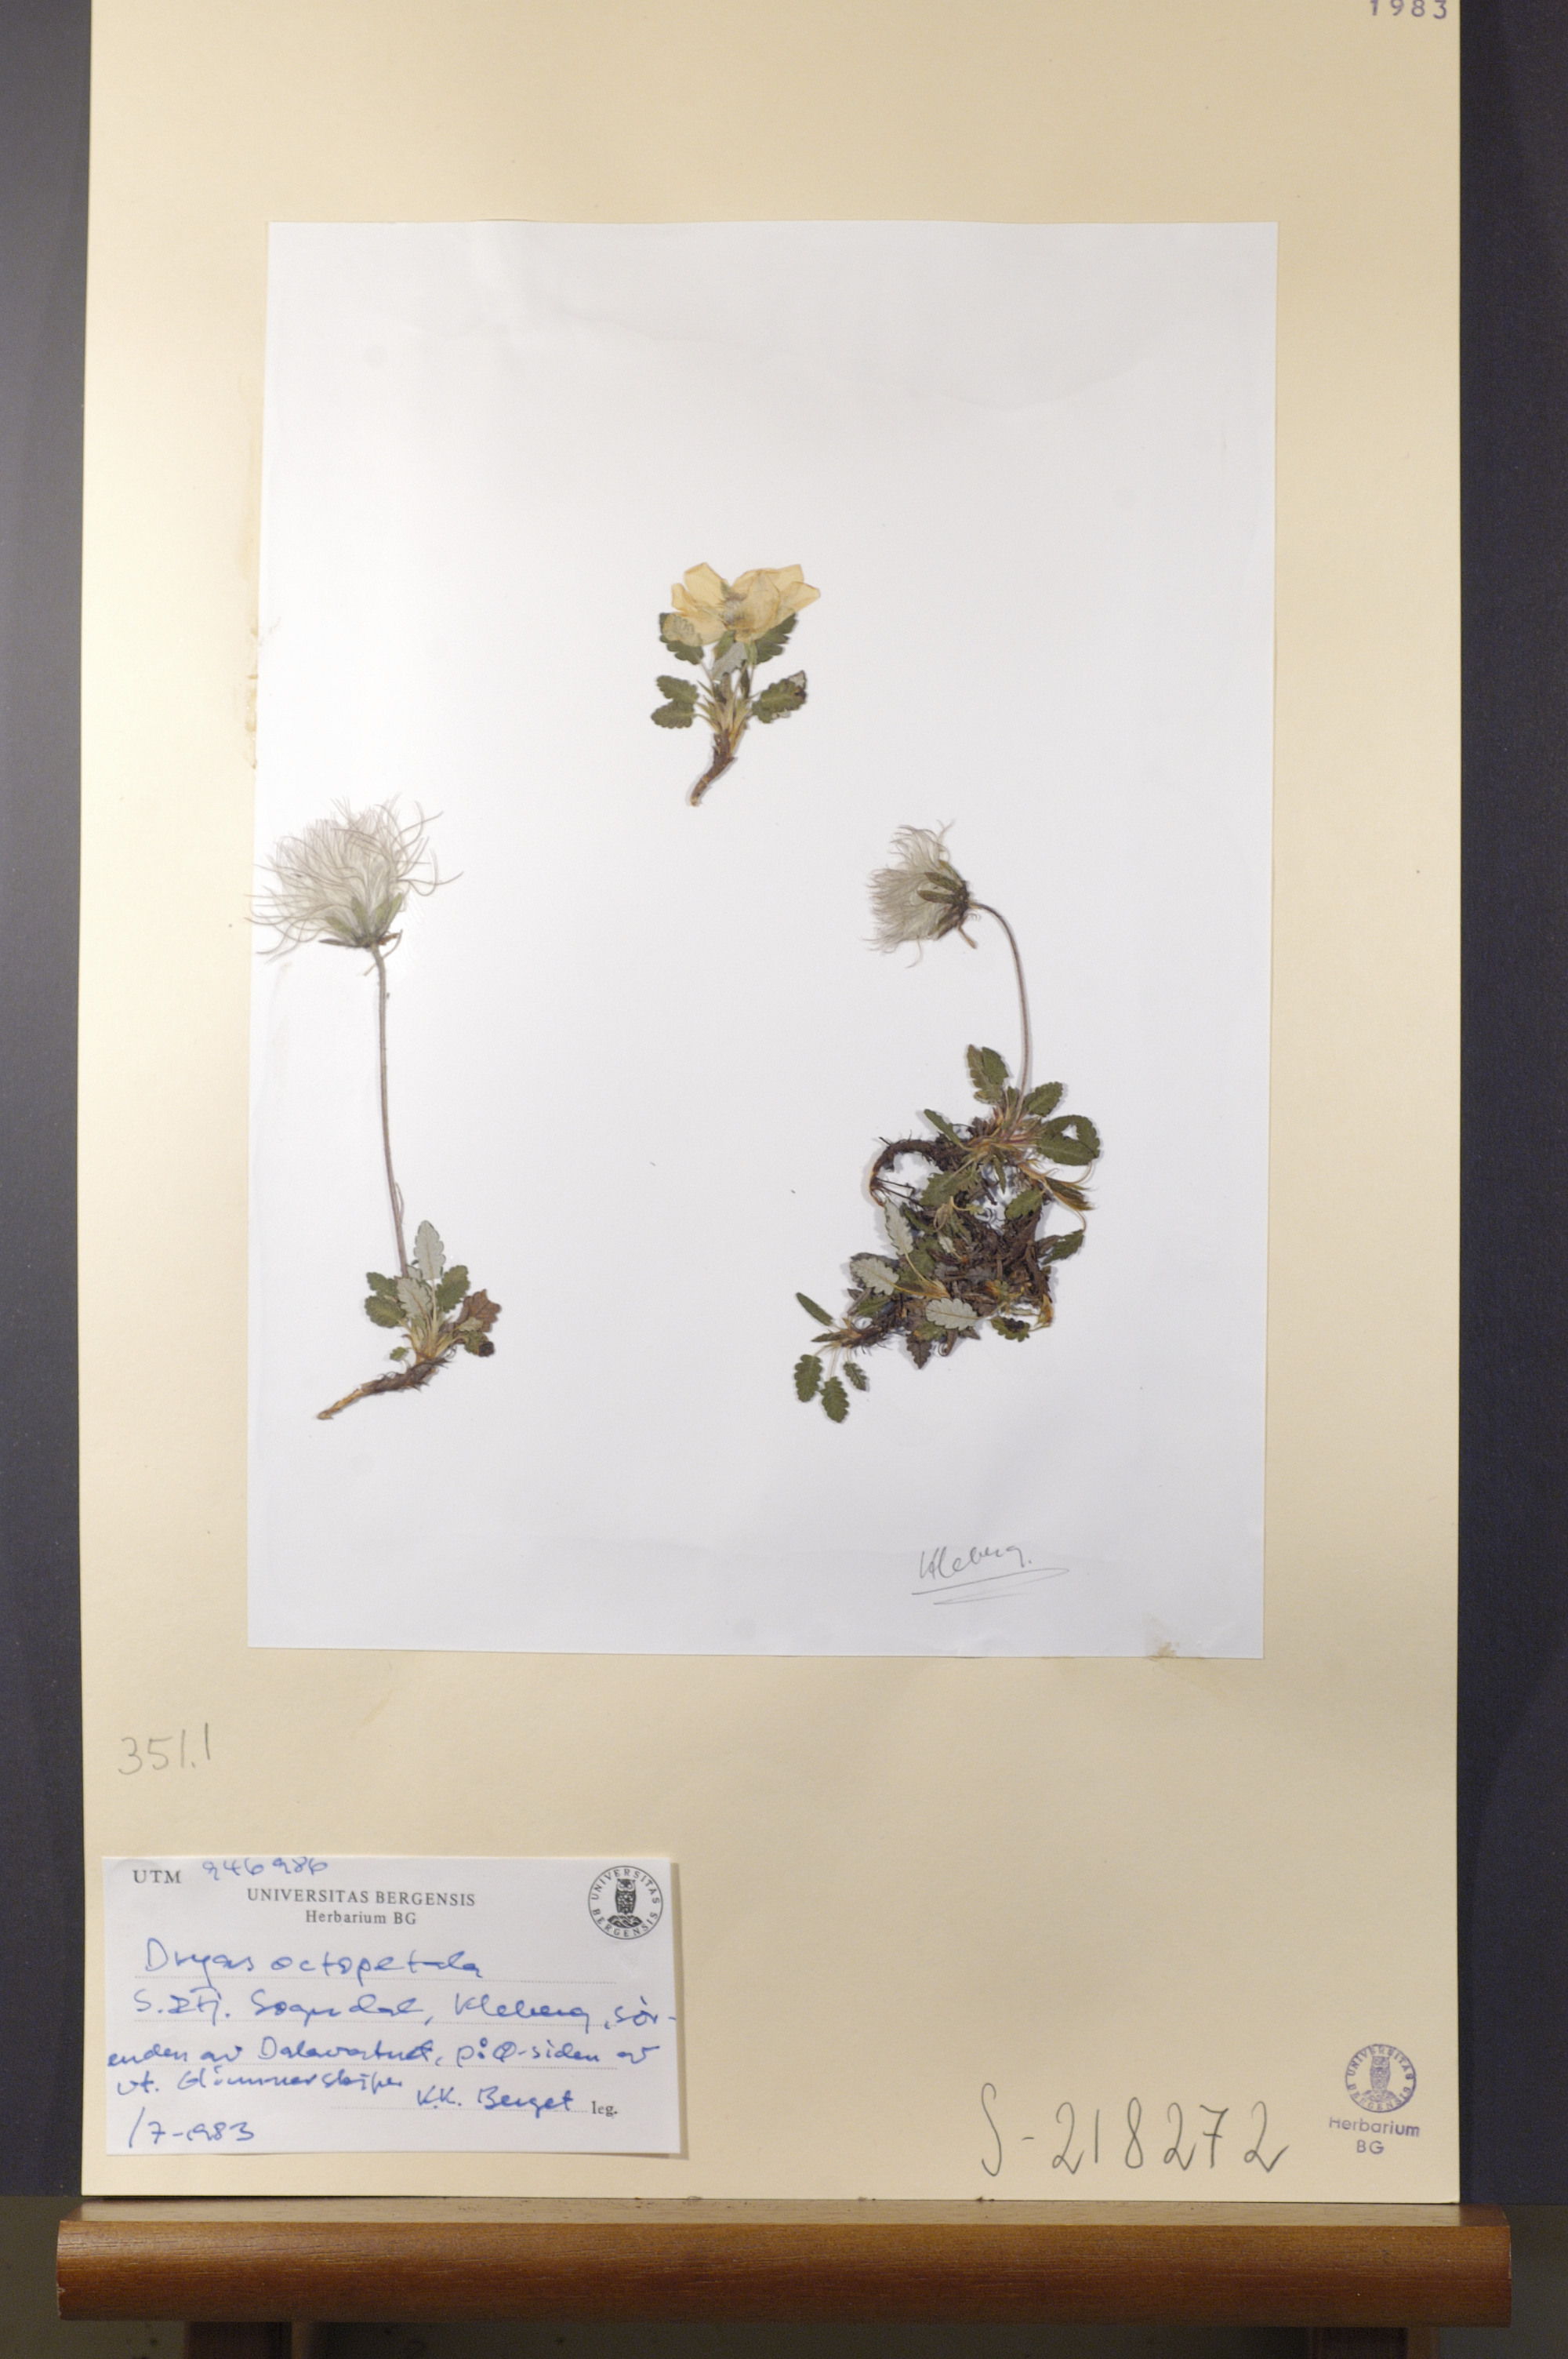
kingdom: Plantae
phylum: Tracheophyta
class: Magnoliopsida
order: Rosales
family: Rosaceae
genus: Dryas
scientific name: Dryas octopetala
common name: Eight-petal mountain-avens
